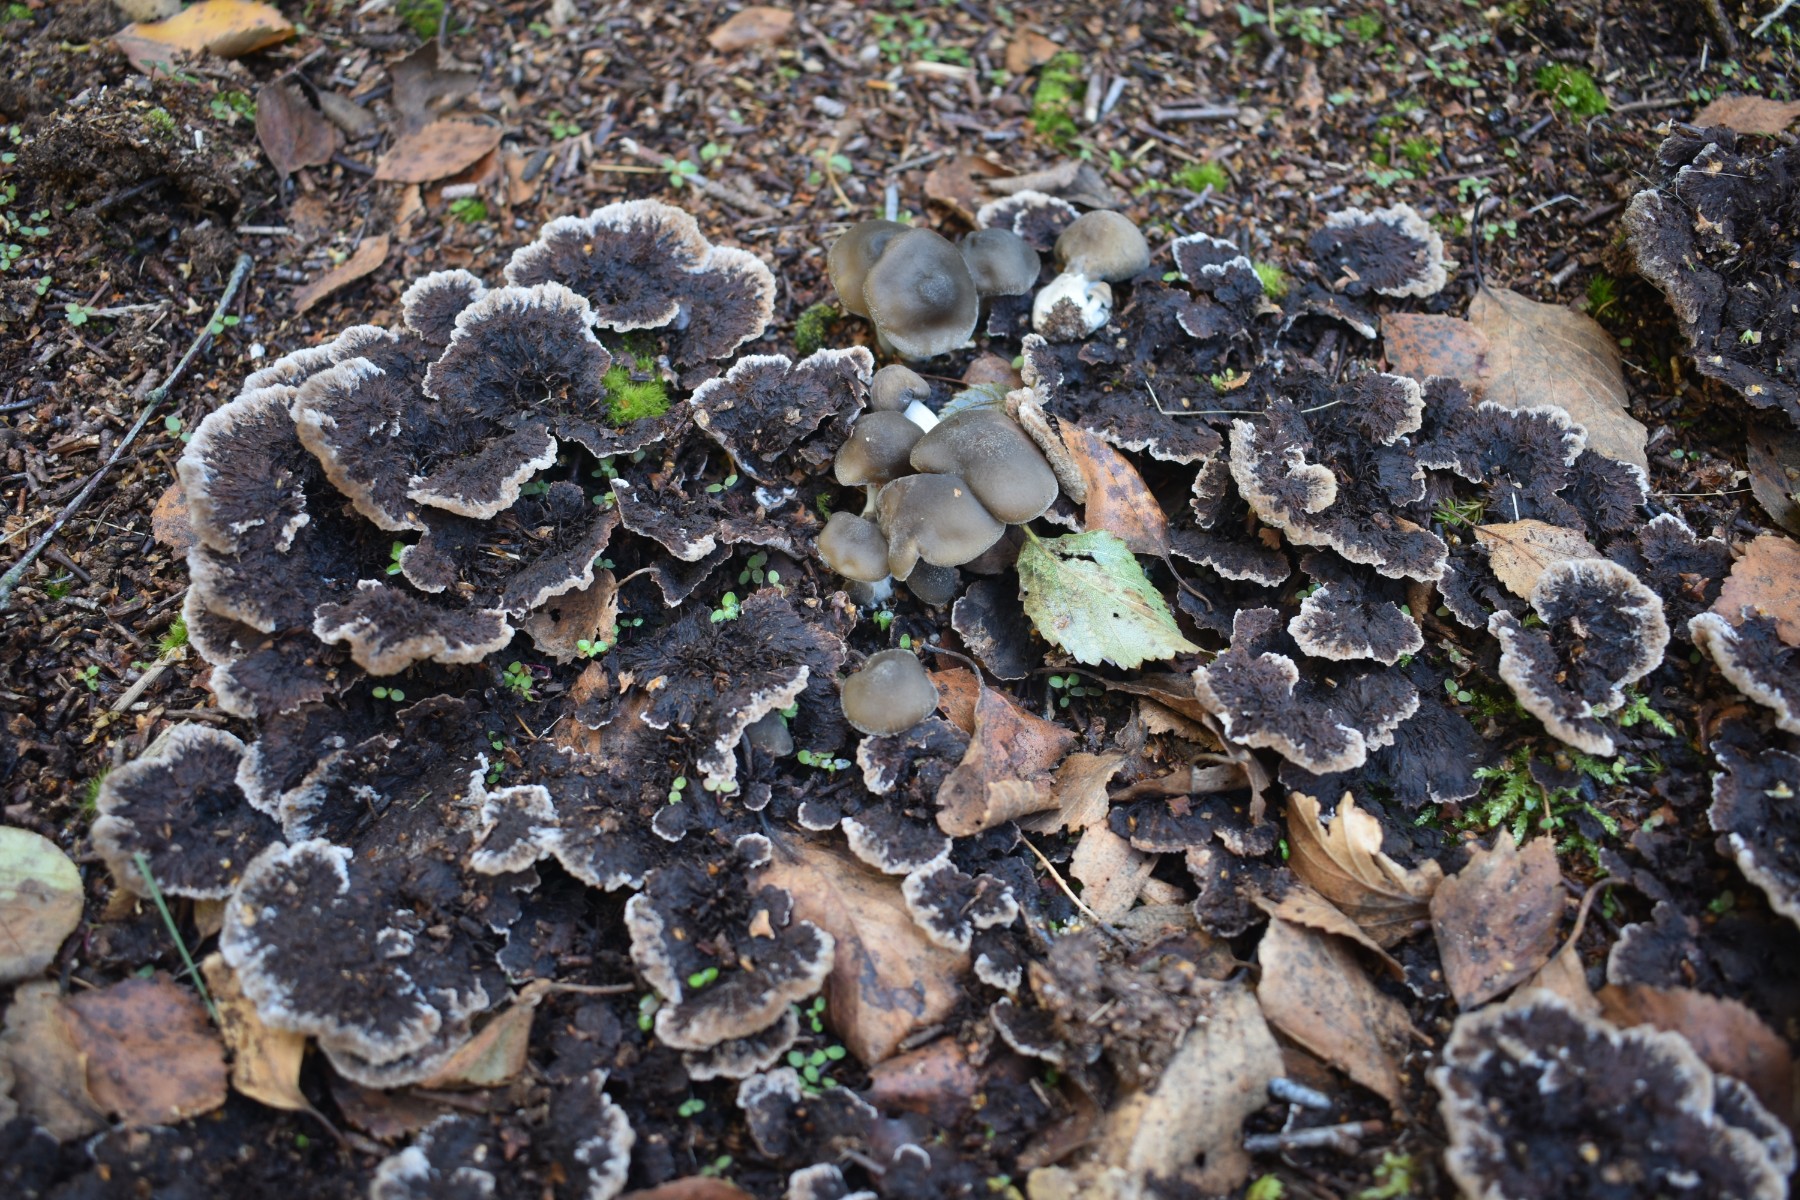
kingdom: Fungi
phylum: Basidiomycota
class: Agaricomycetes
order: Thelephorales
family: Thelephoraceae
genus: Thelephora
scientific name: Thelephora terrestris
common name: fliget frynsesvamp
